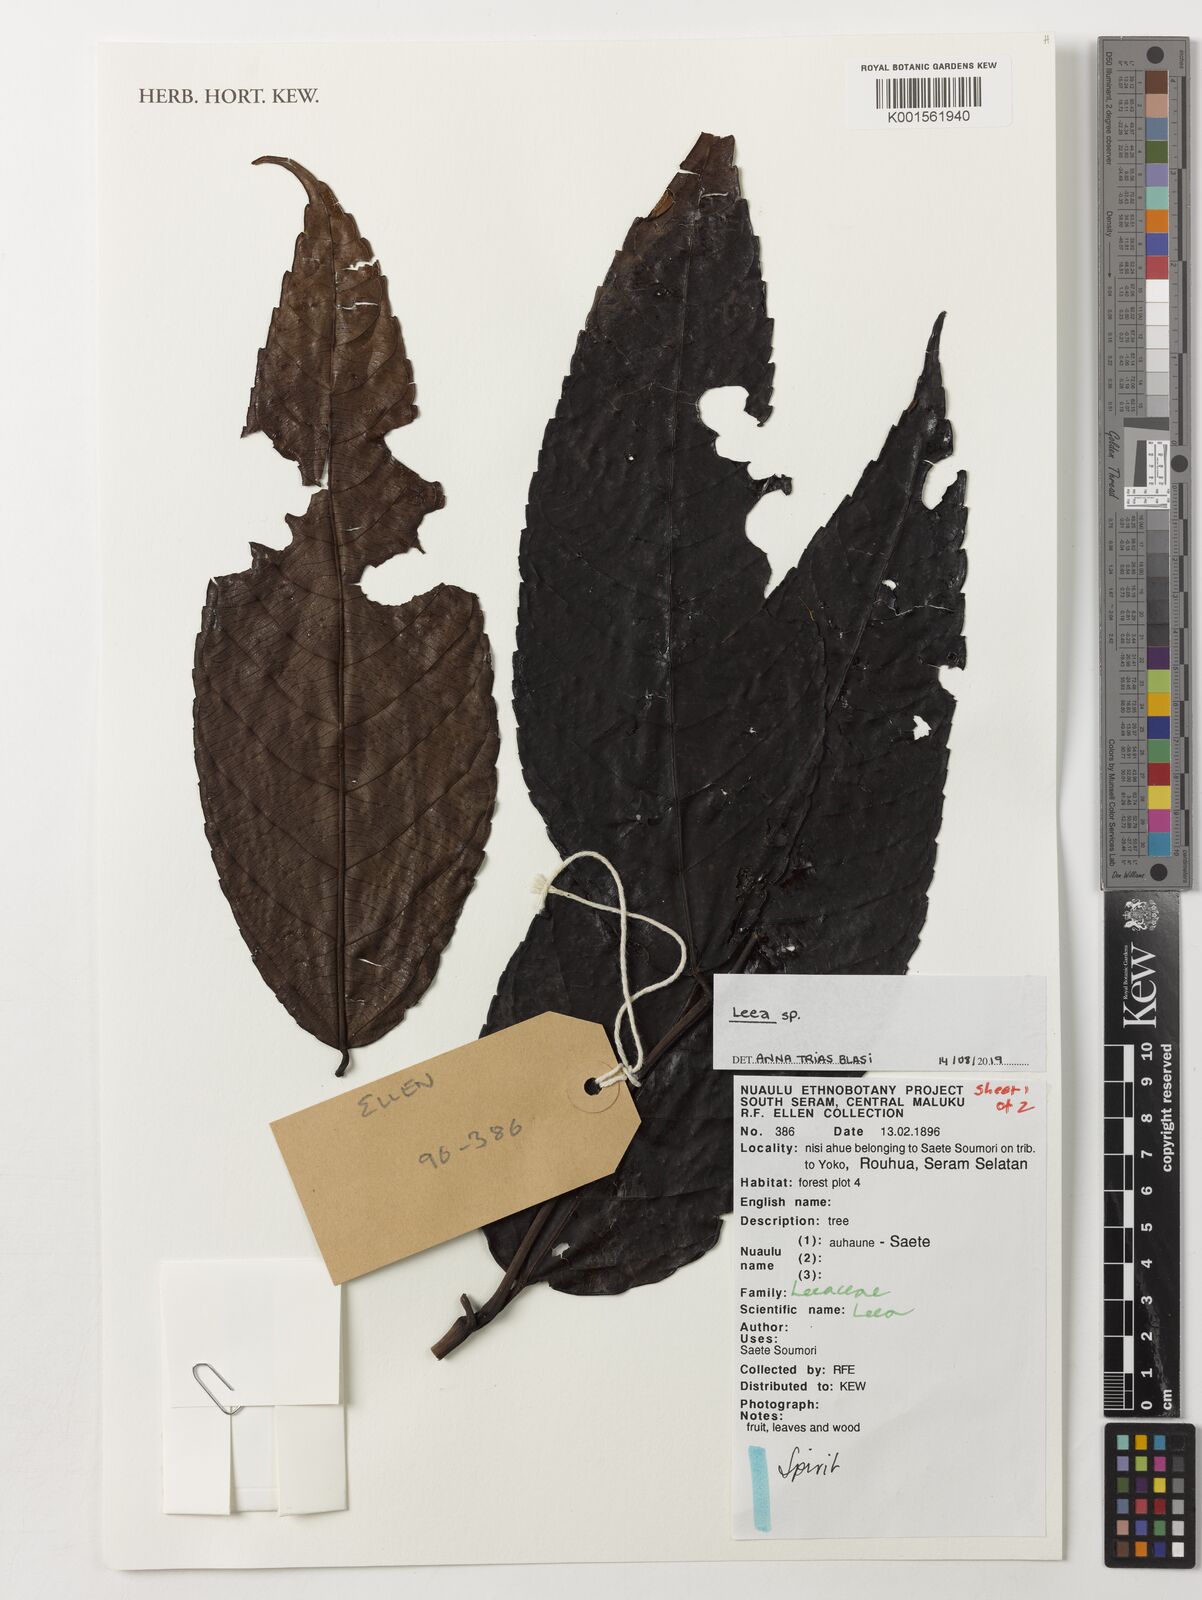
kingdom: Plantae
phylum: Tracheophyta
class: Magnoliopsida
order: Vitales
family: Vitaceae
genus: Leea
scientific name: Leea
